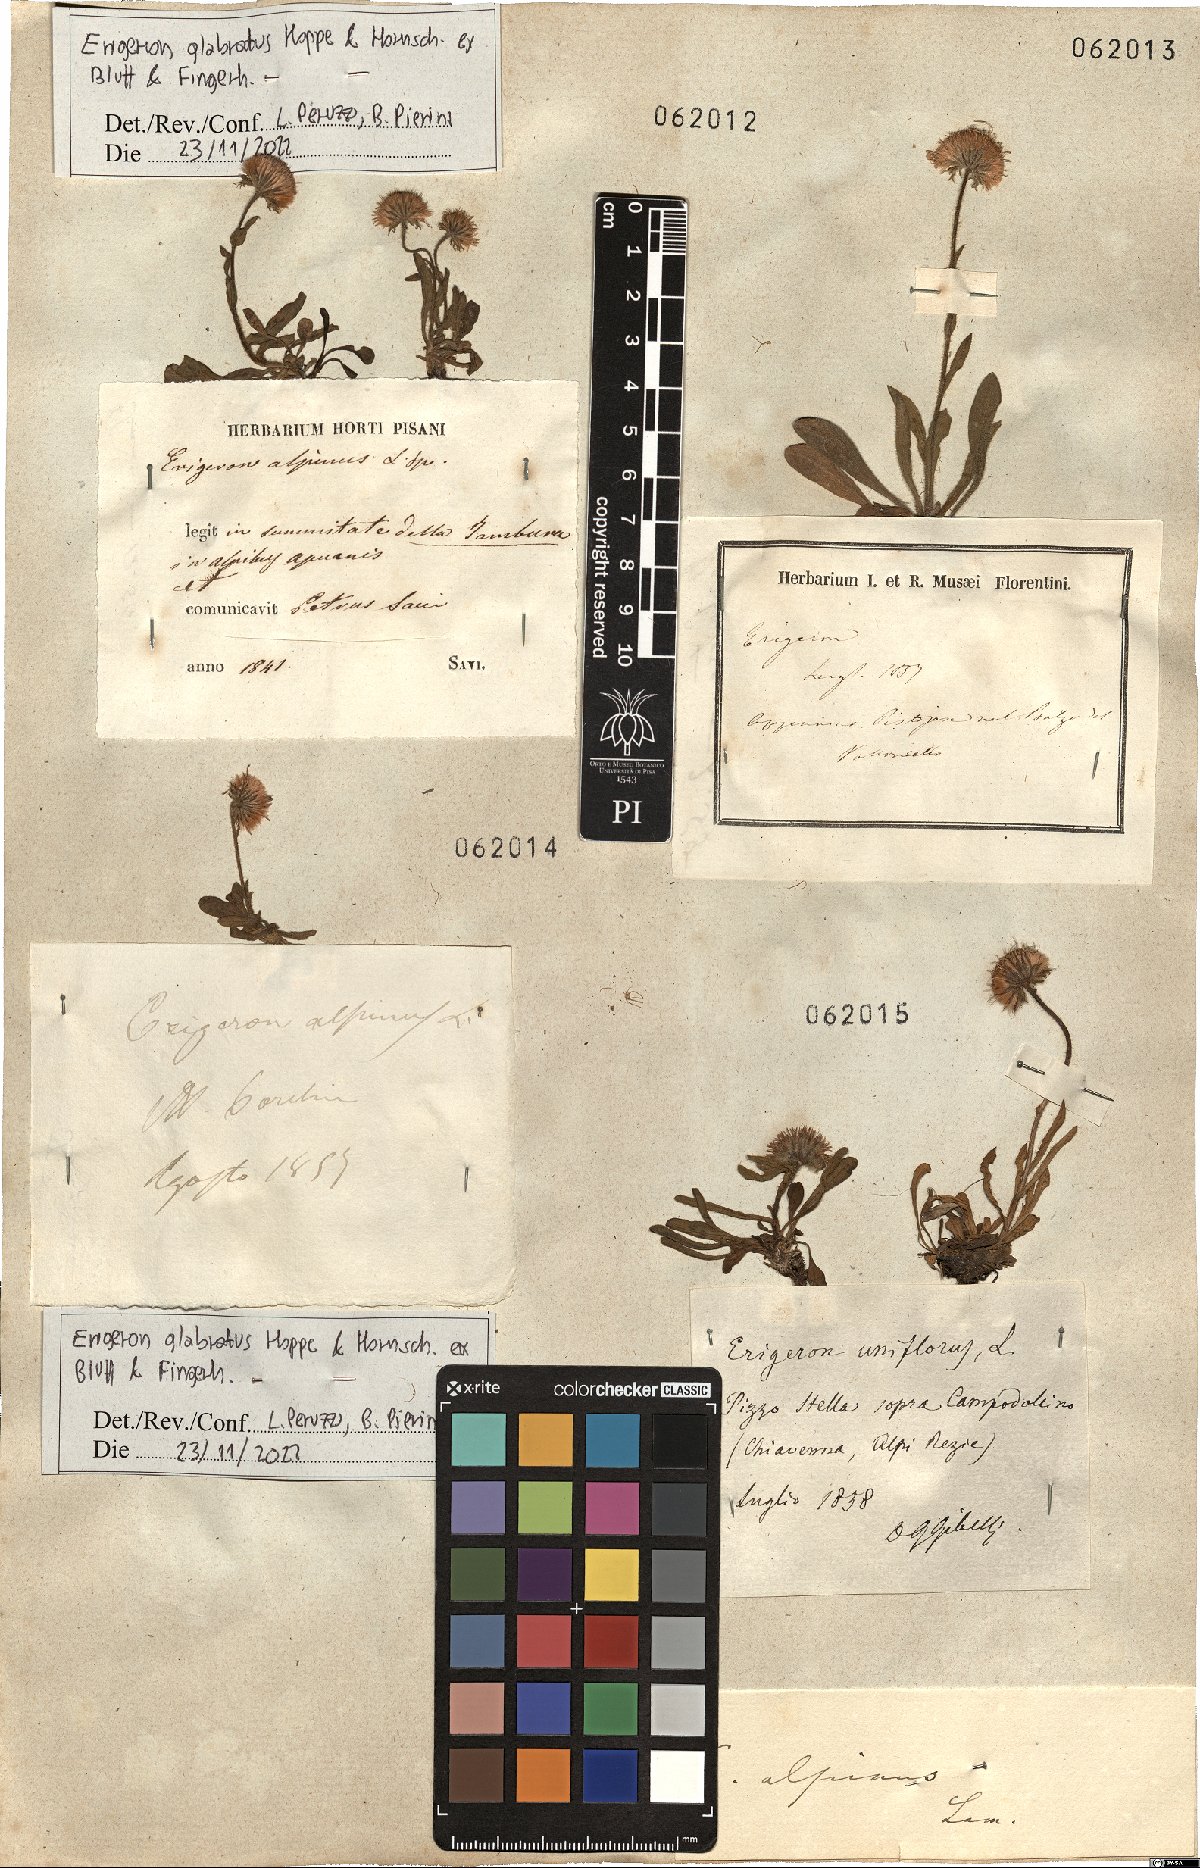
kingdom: Plantae
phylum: Tracheophyta
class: Magnoliopsida
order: Asterales
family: Asteraceae
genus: Erigeron
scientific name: Erigeron glabratus
